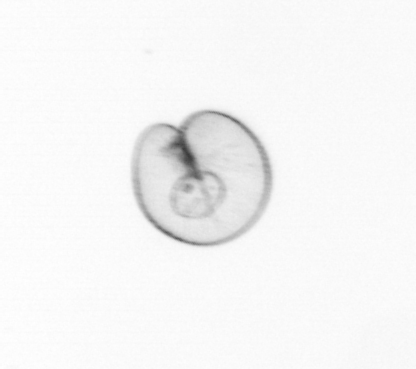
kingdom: Chromista
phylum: Myzozoa
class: Dinophyceae
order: Noctilucales
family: Noctilucaceae
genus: Noctiluca
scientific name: Noctiluca scintillans
